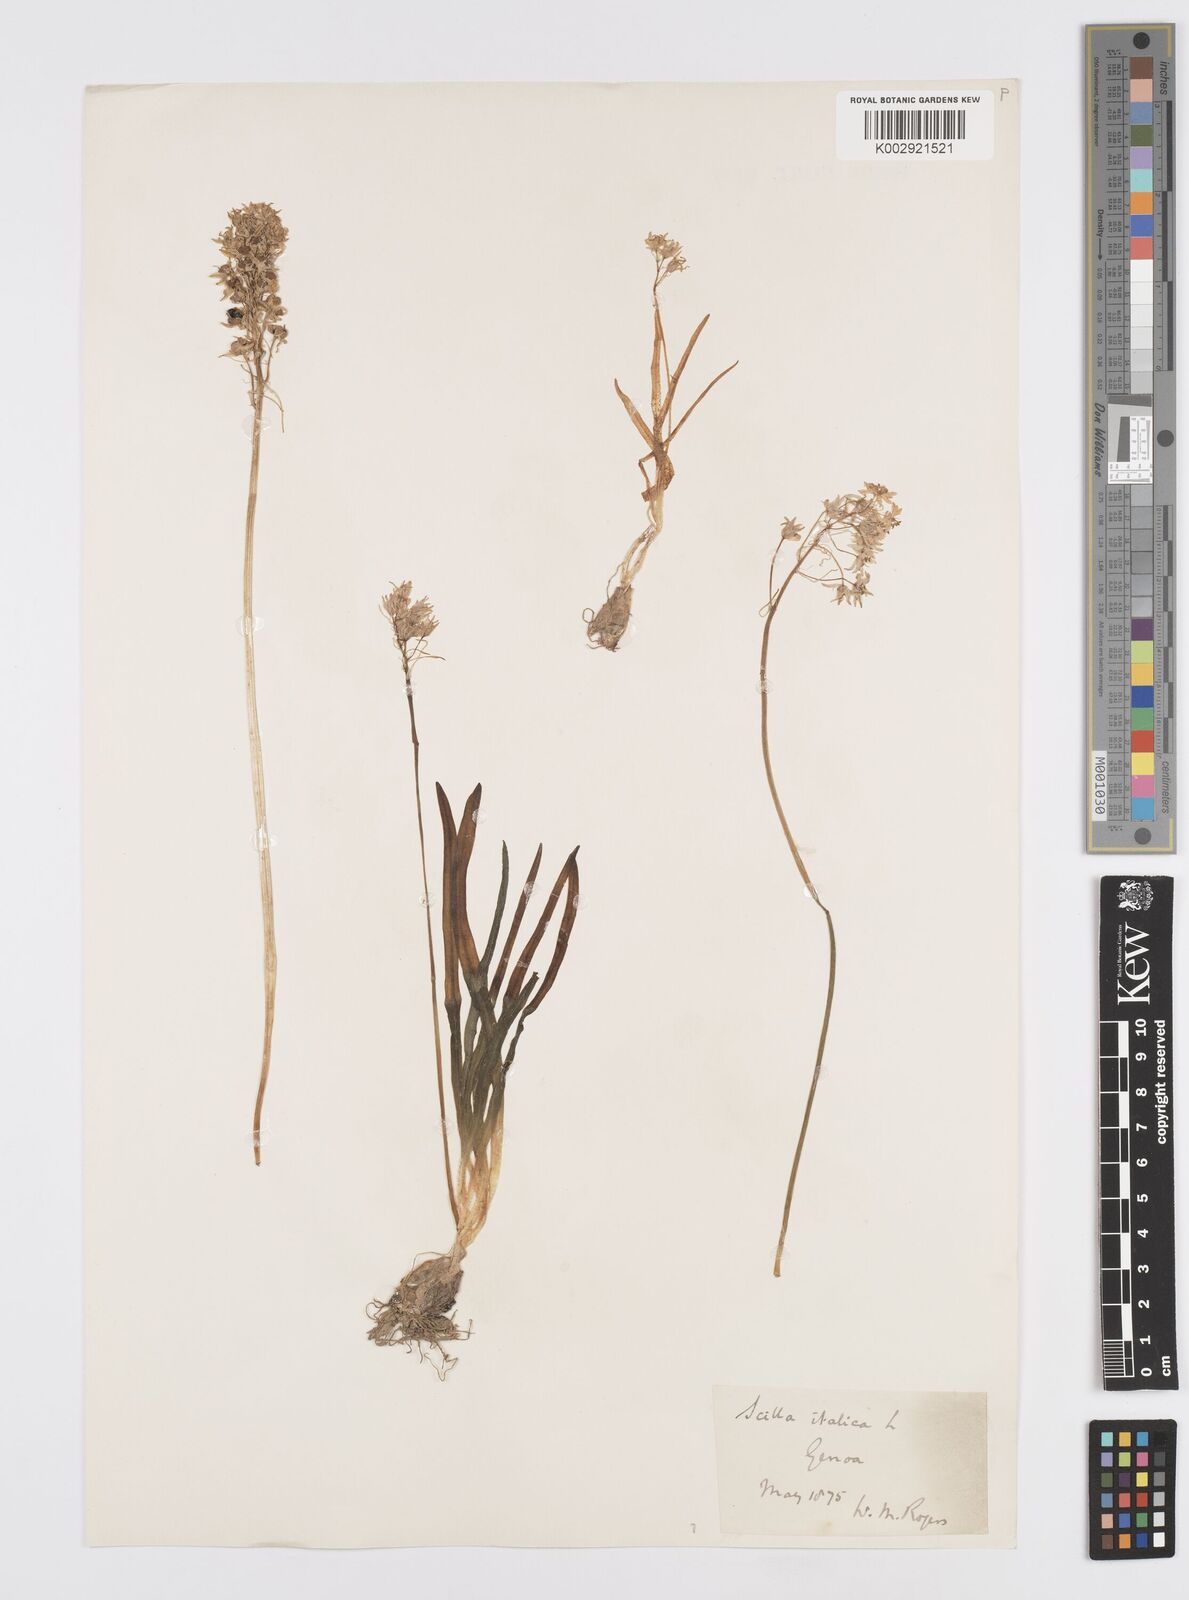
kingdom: Plantae
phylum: Tracheophyta
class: Liliopsida
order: Asparagales
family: Asparagaceae
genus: Hyacinthoides
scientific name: Hyacinthoides italica
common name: Italian bluebell
